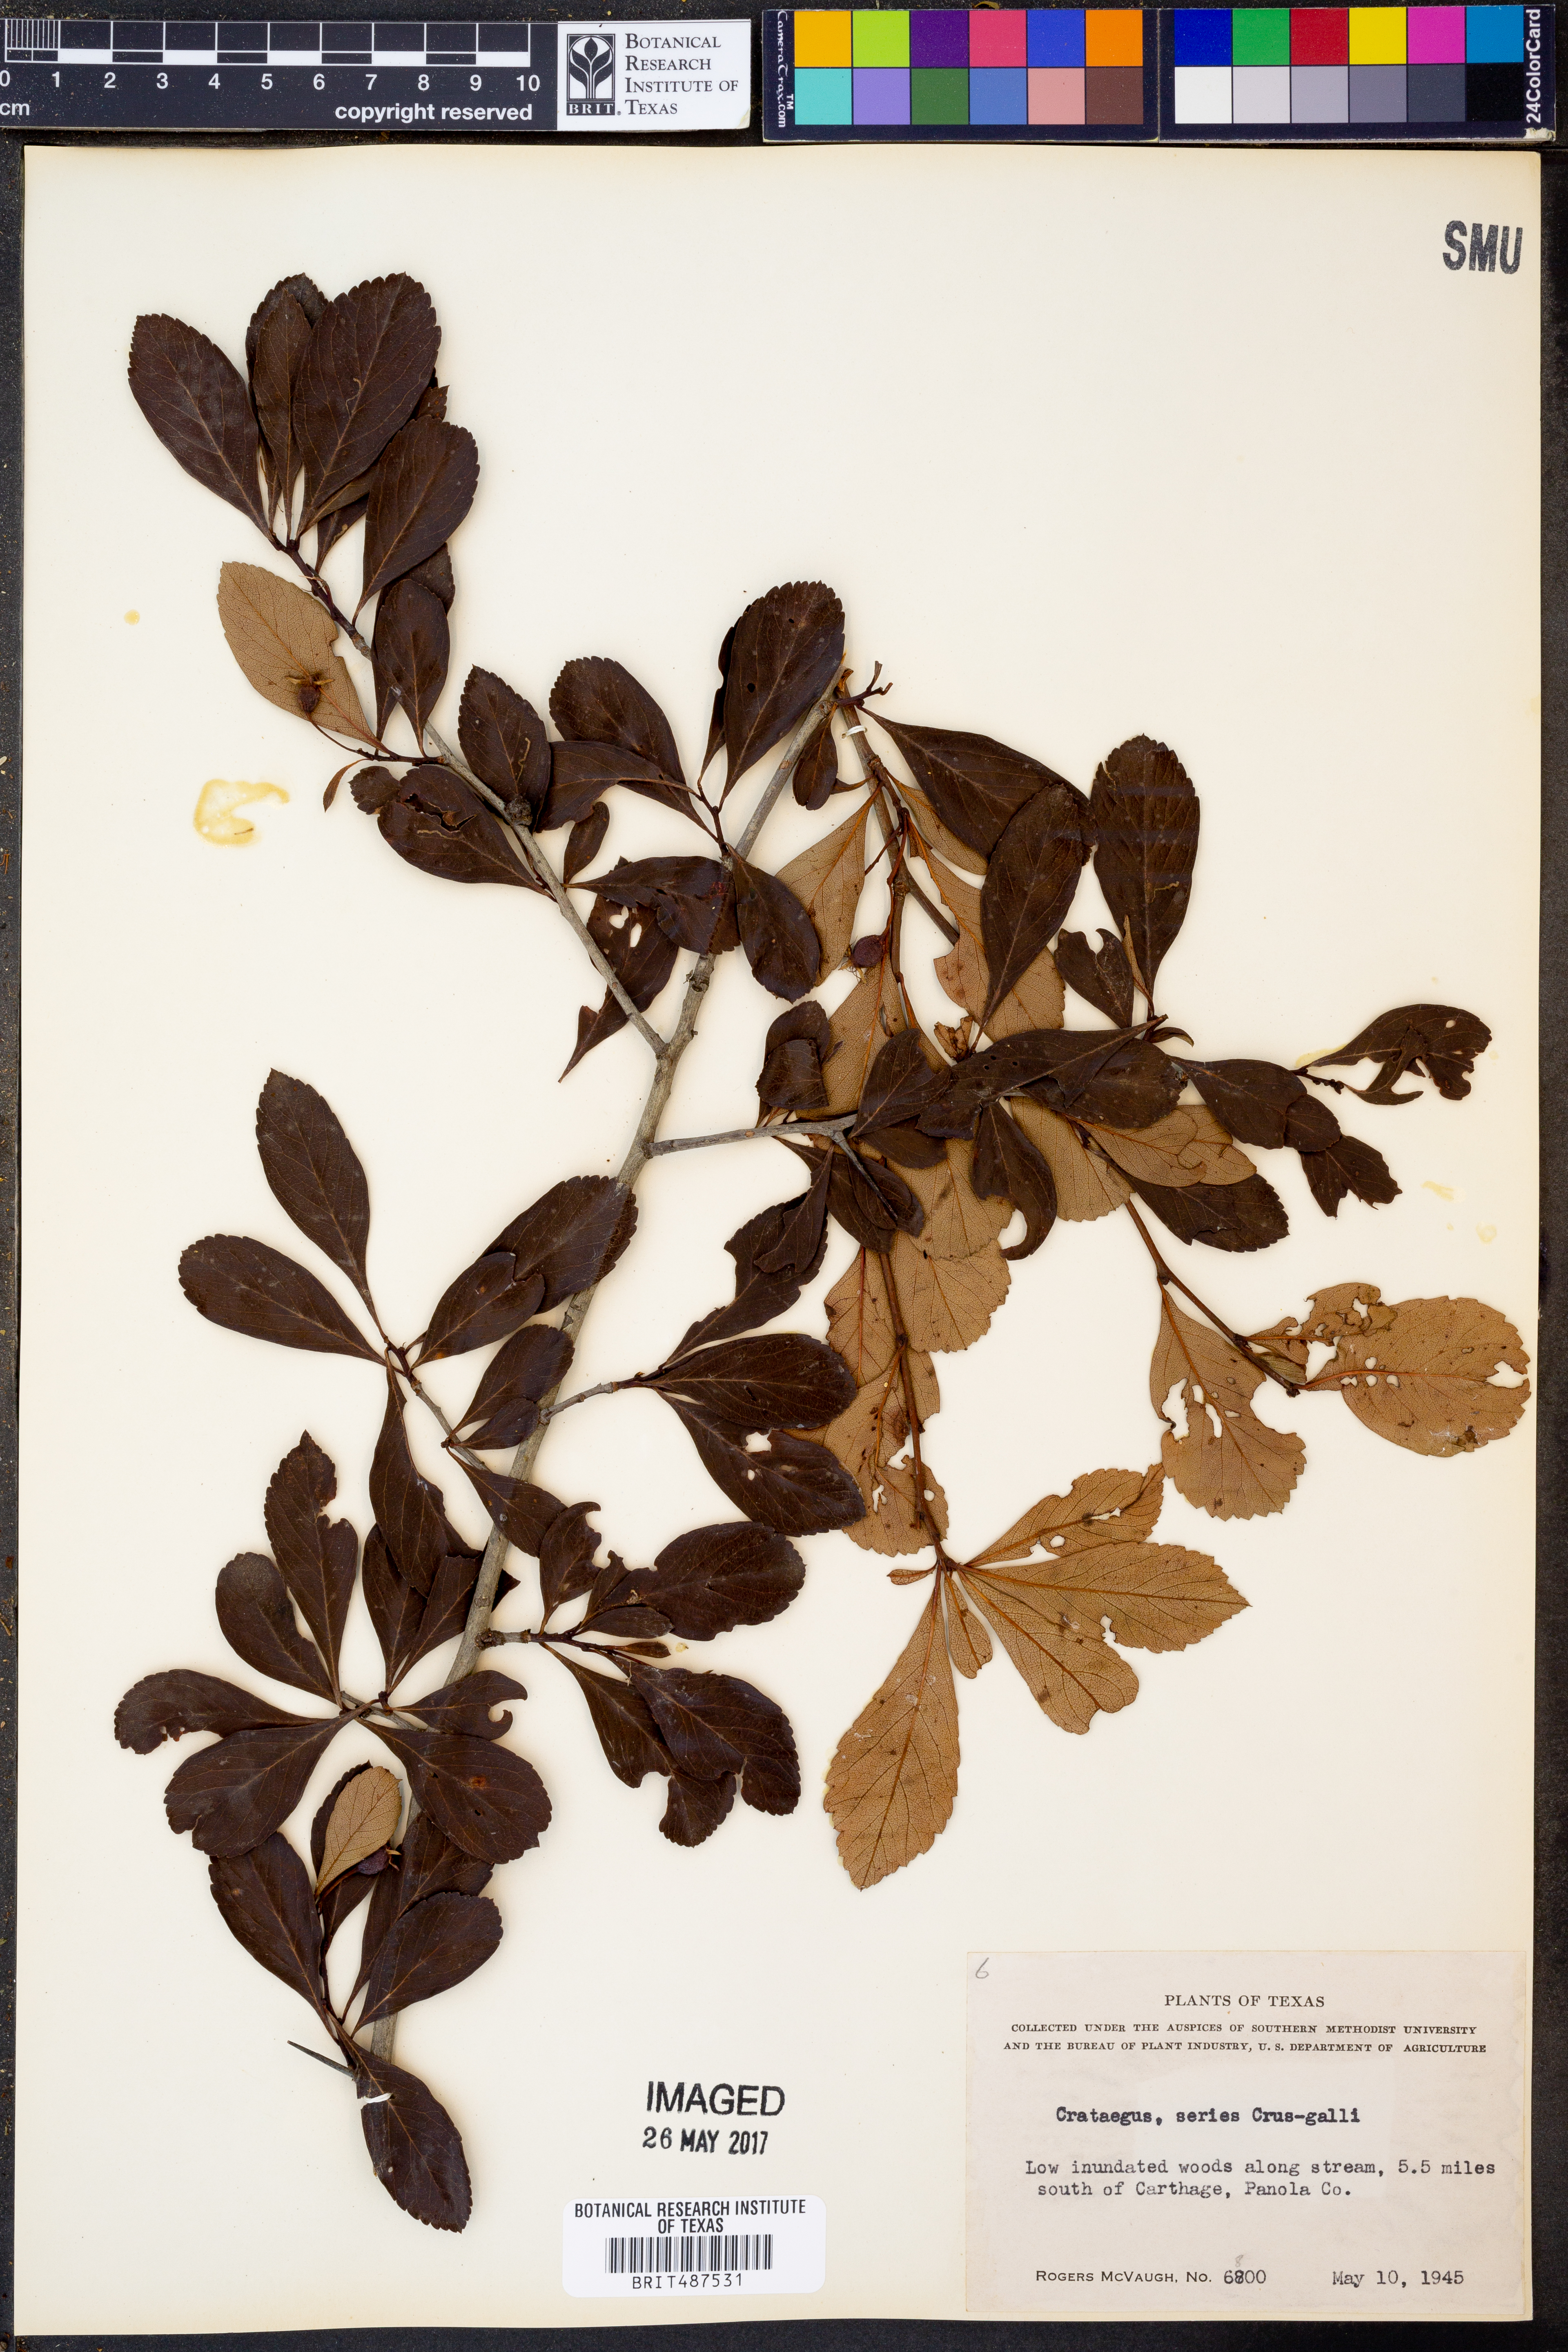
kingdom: Plantae
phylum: Tracheophyta
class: Magnoliopsida
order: Rosales
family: Rosaceae
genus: Crataegus
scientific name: Crataegus
